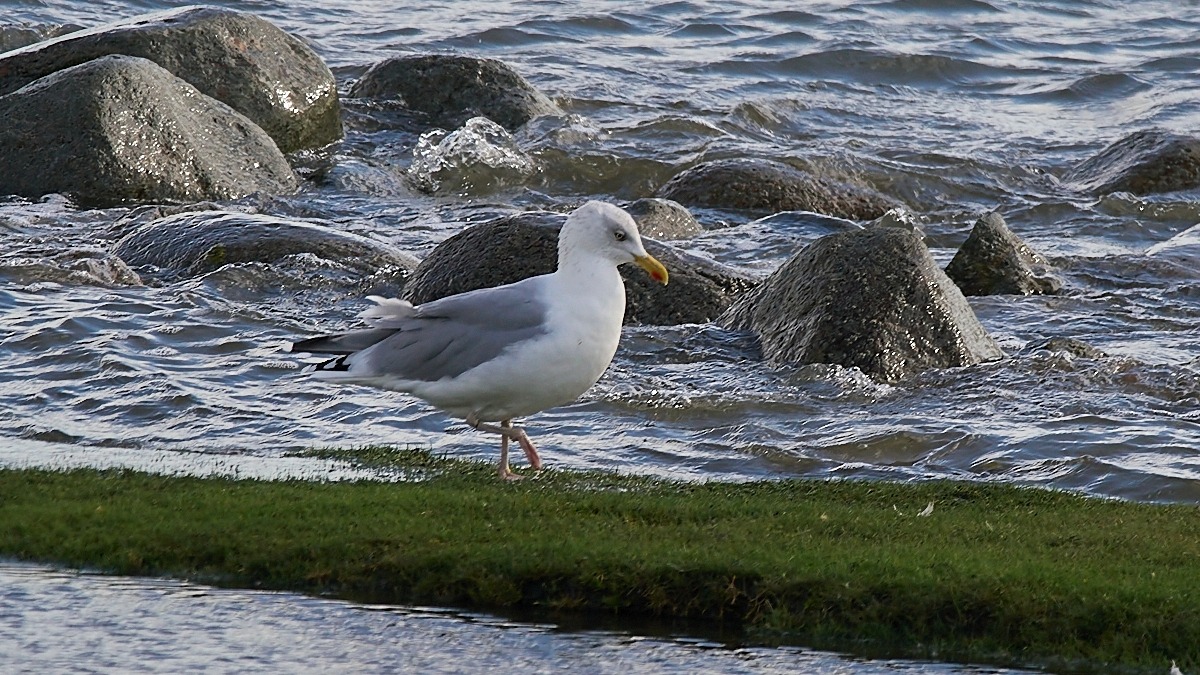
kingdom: Animalia
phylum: Chordata
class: Aves
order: Charadriiformes
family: Laridae
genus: Larus
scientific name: Larus argentatus
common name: Sølvmåge
